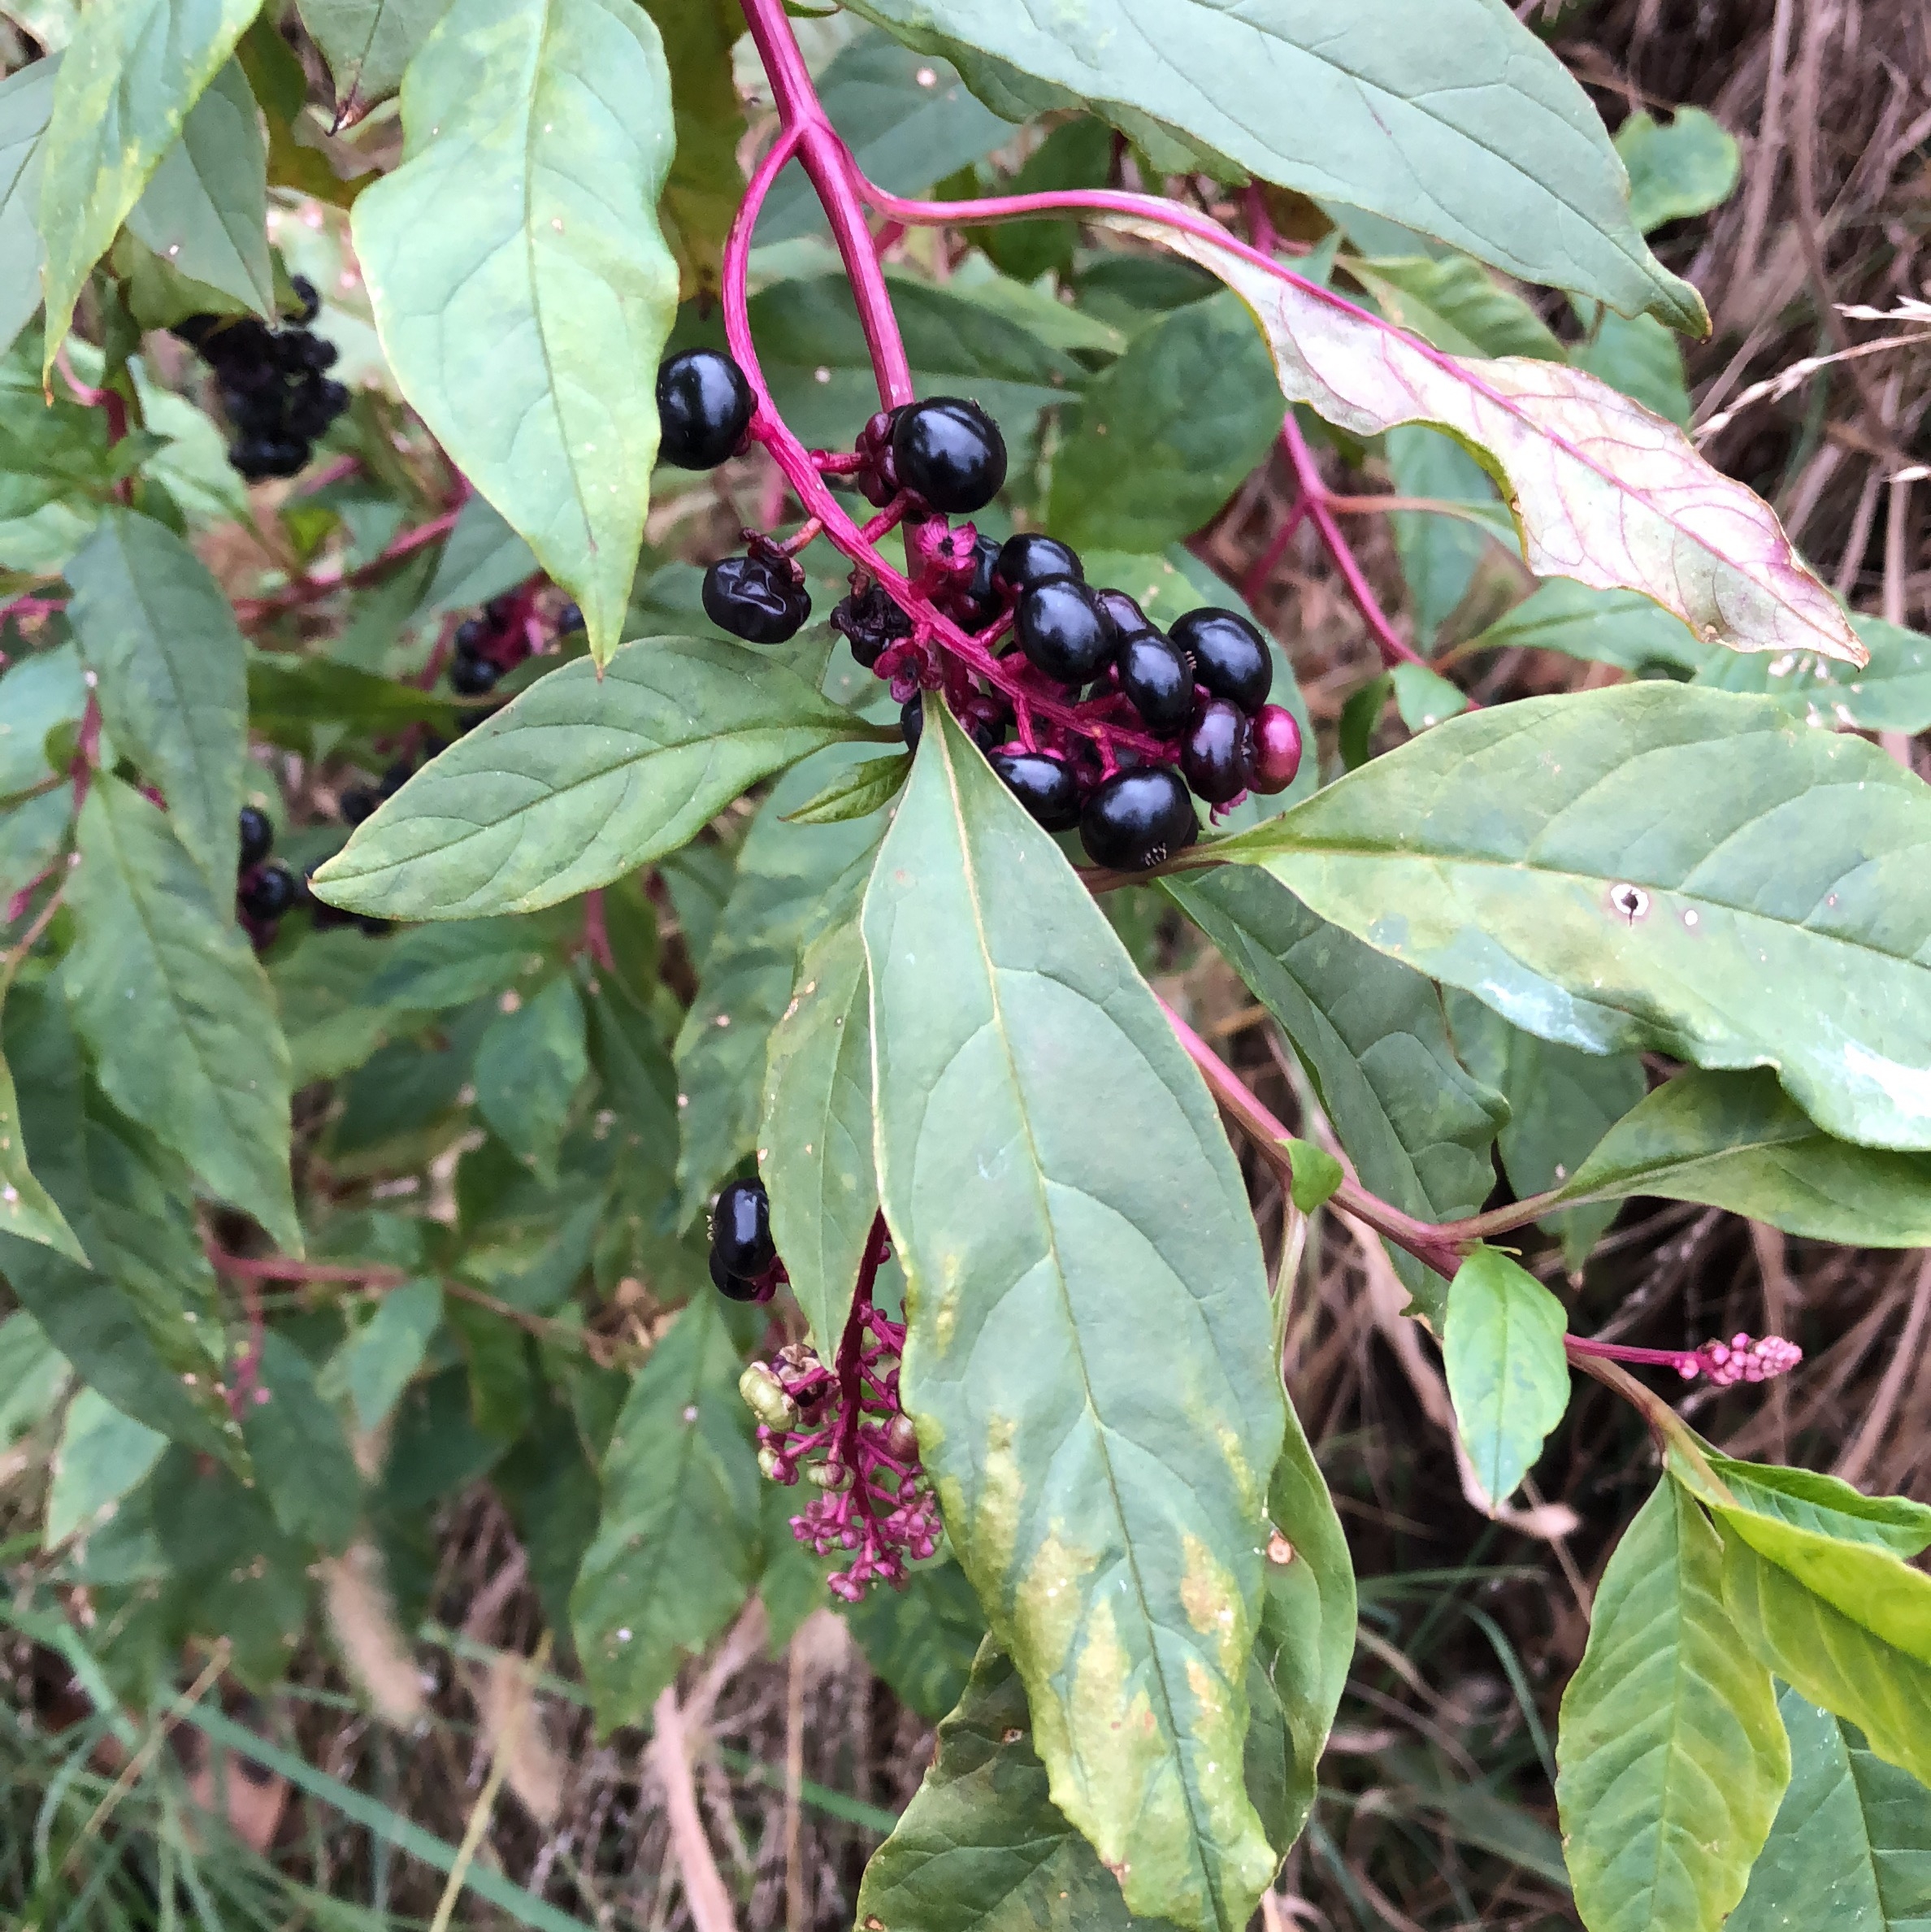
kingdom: Plantae
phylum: Tracheophyta
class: Magnoliopsida
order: Caryophyllales
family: Phytolaccaceae
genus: Phytolacca
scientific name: Phytolacca americana
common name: Pokeweed
